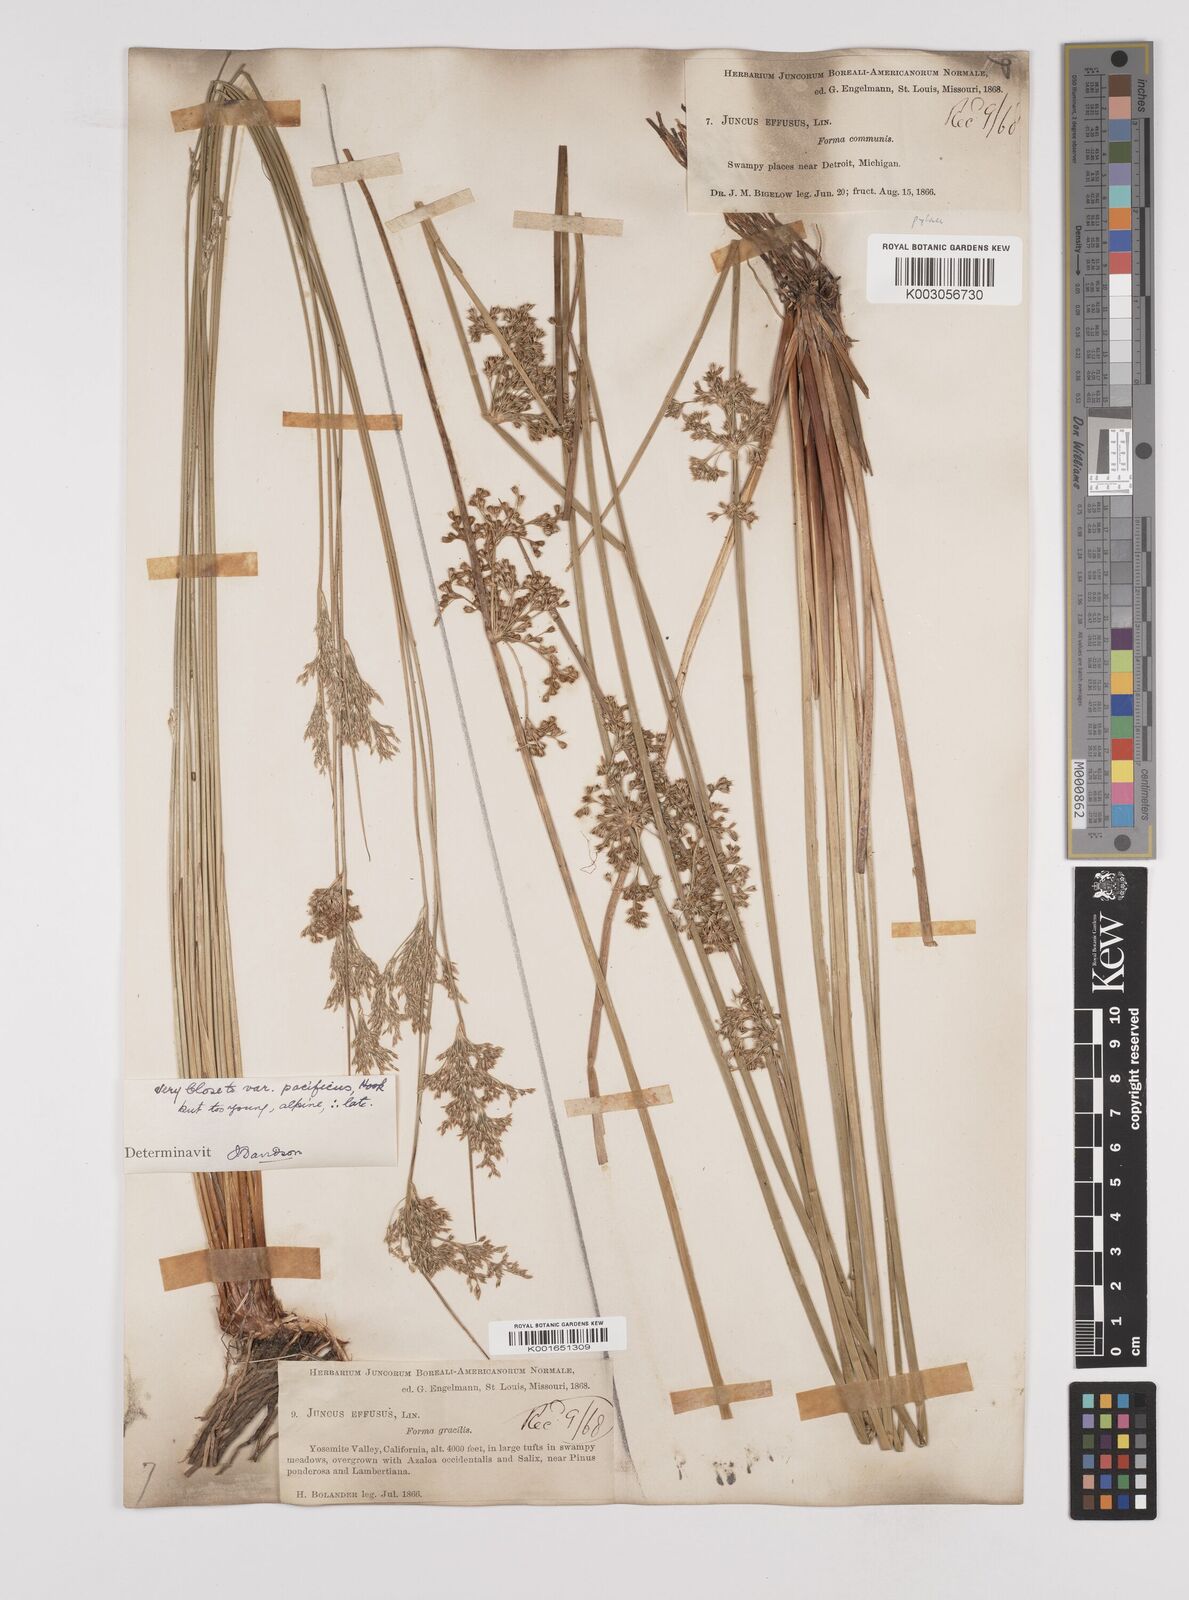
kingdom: Plantae
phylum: Tracheophyta
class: Liliopsida
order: Poales
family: Juncaceae
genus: Juncus
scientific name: Juncus effusus
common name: Soft rush
